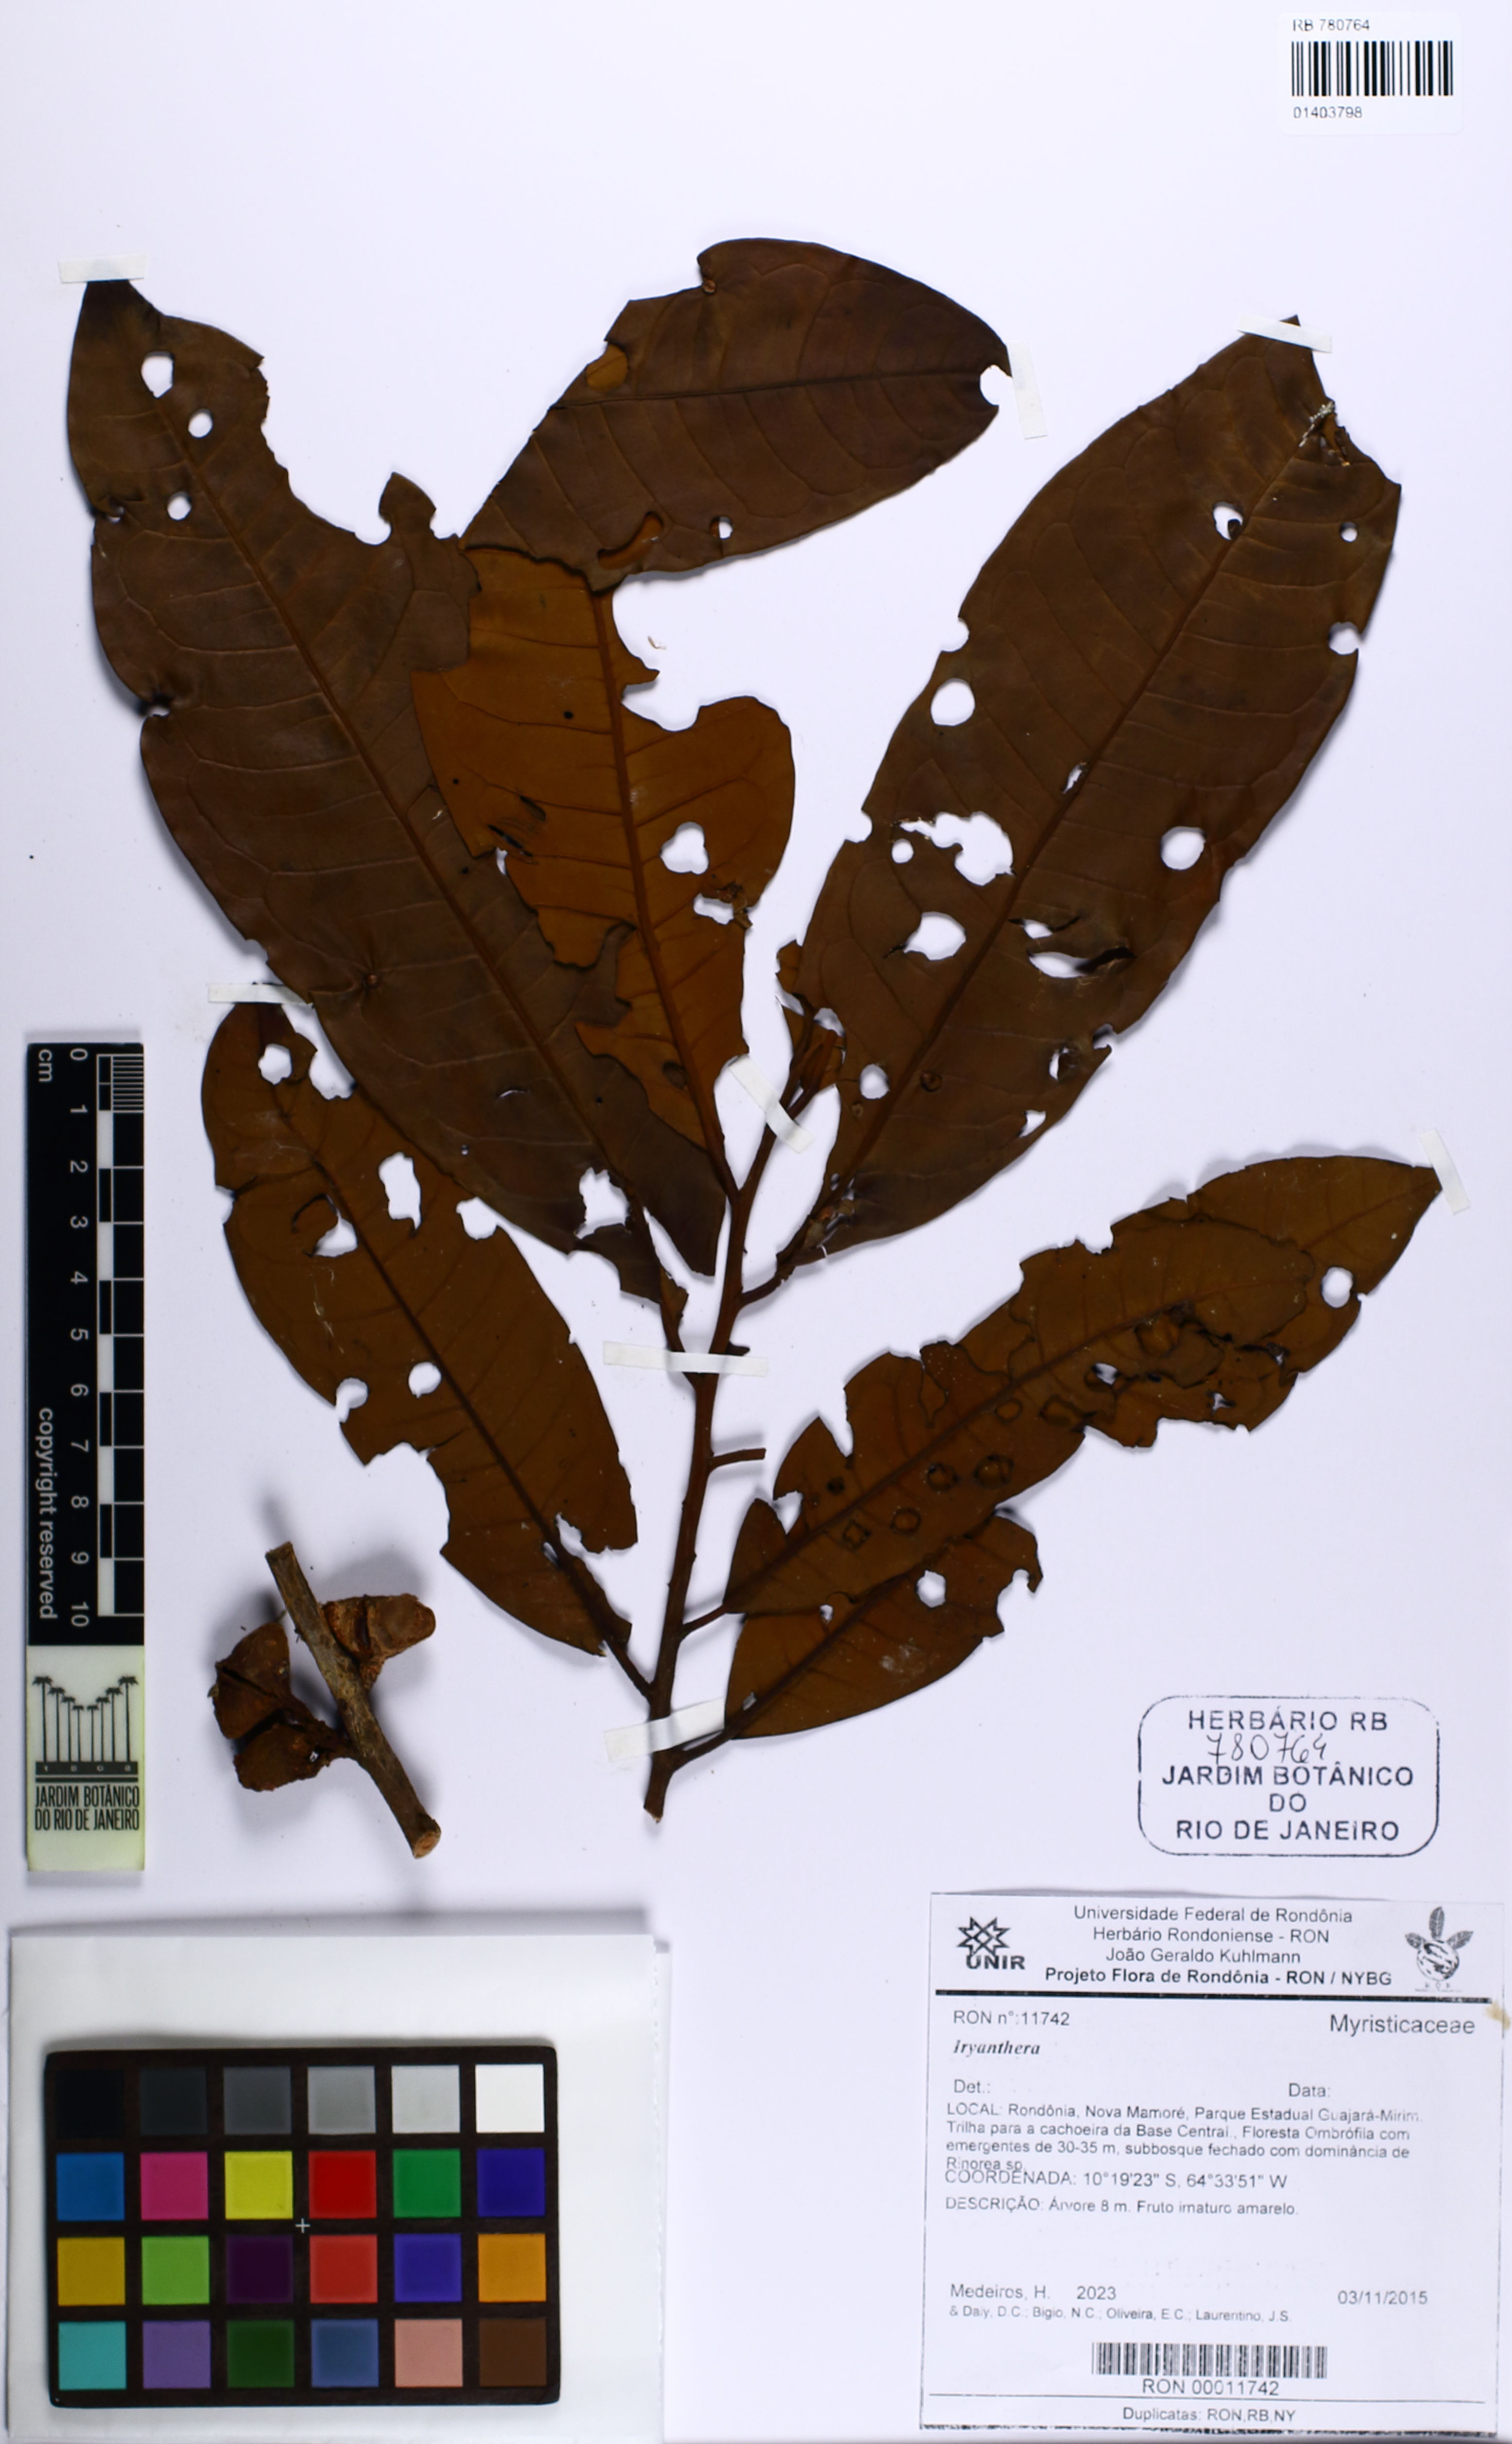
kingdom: Plantae
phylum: Tracheophyta
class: Magnoliopsida
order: Magnoliales
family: Myristicaceae
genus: Iryanthera
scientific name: Iryanthera
